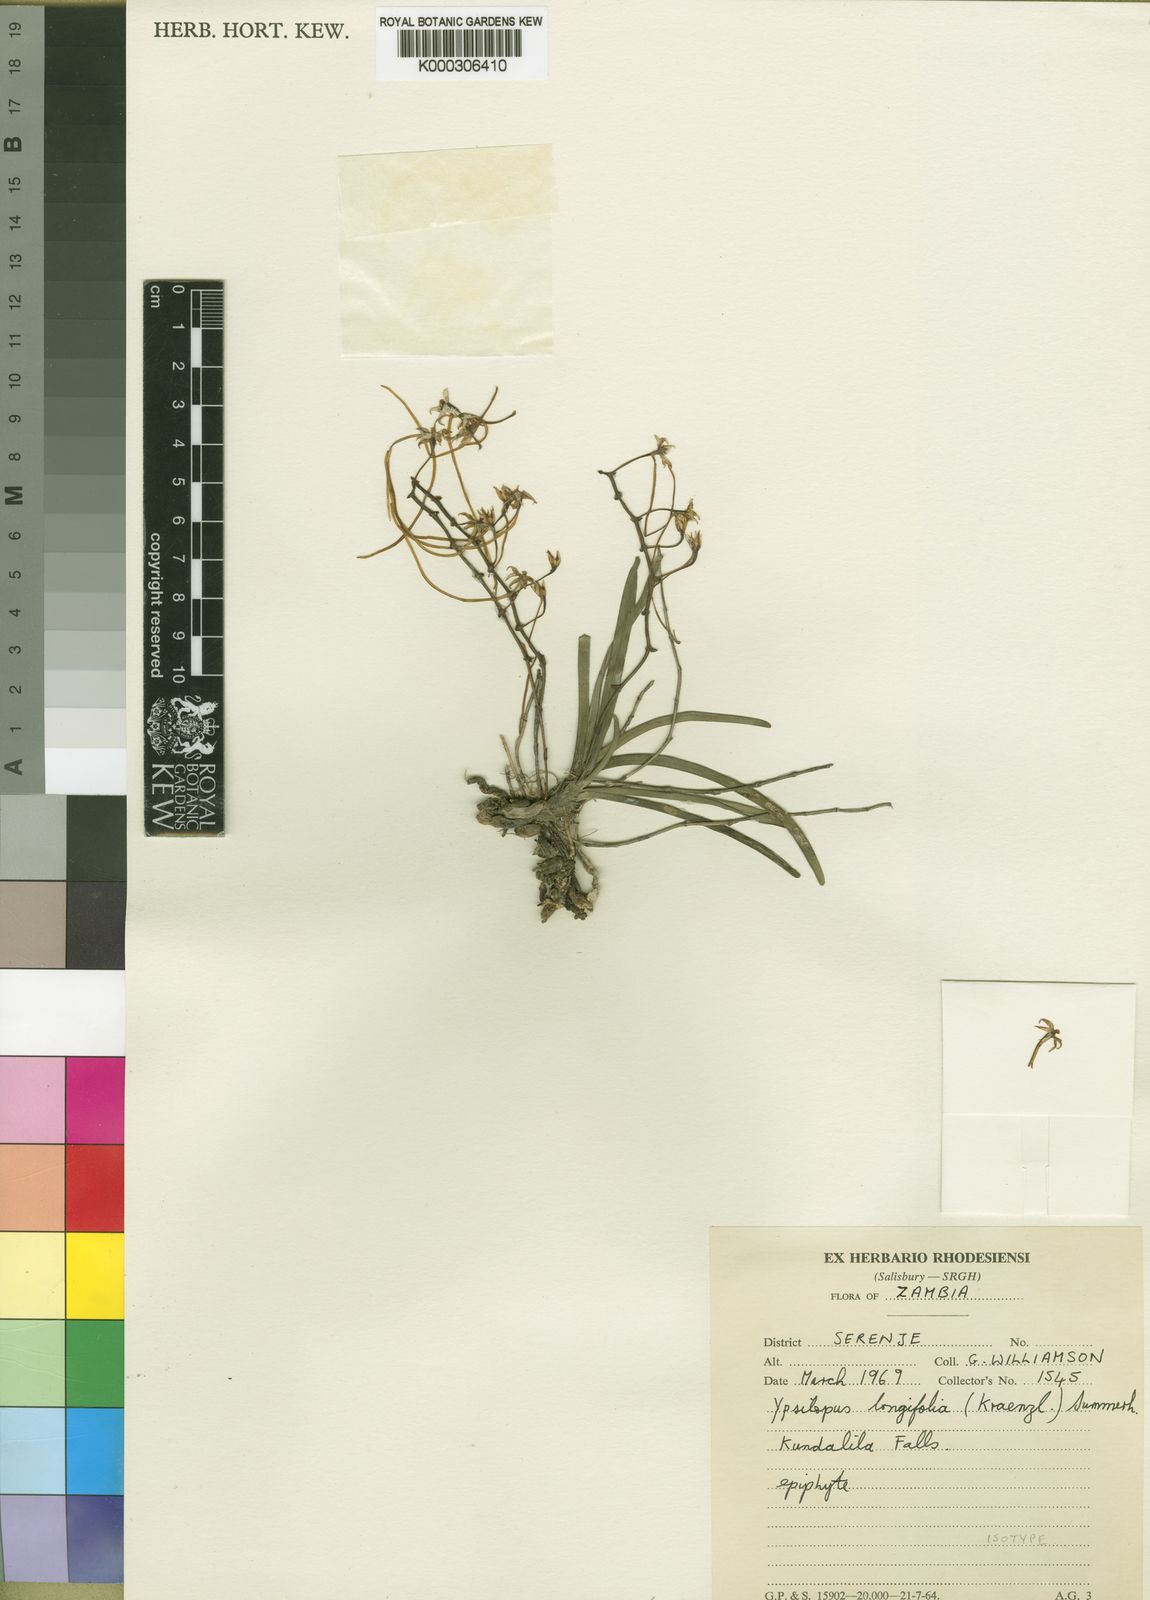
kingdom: Plantae
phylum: Tracheophyta
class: Liliopsida
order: Asparagales
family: Orchidaceae
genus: Ypsilopus
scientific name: Ypsilopus erectus
